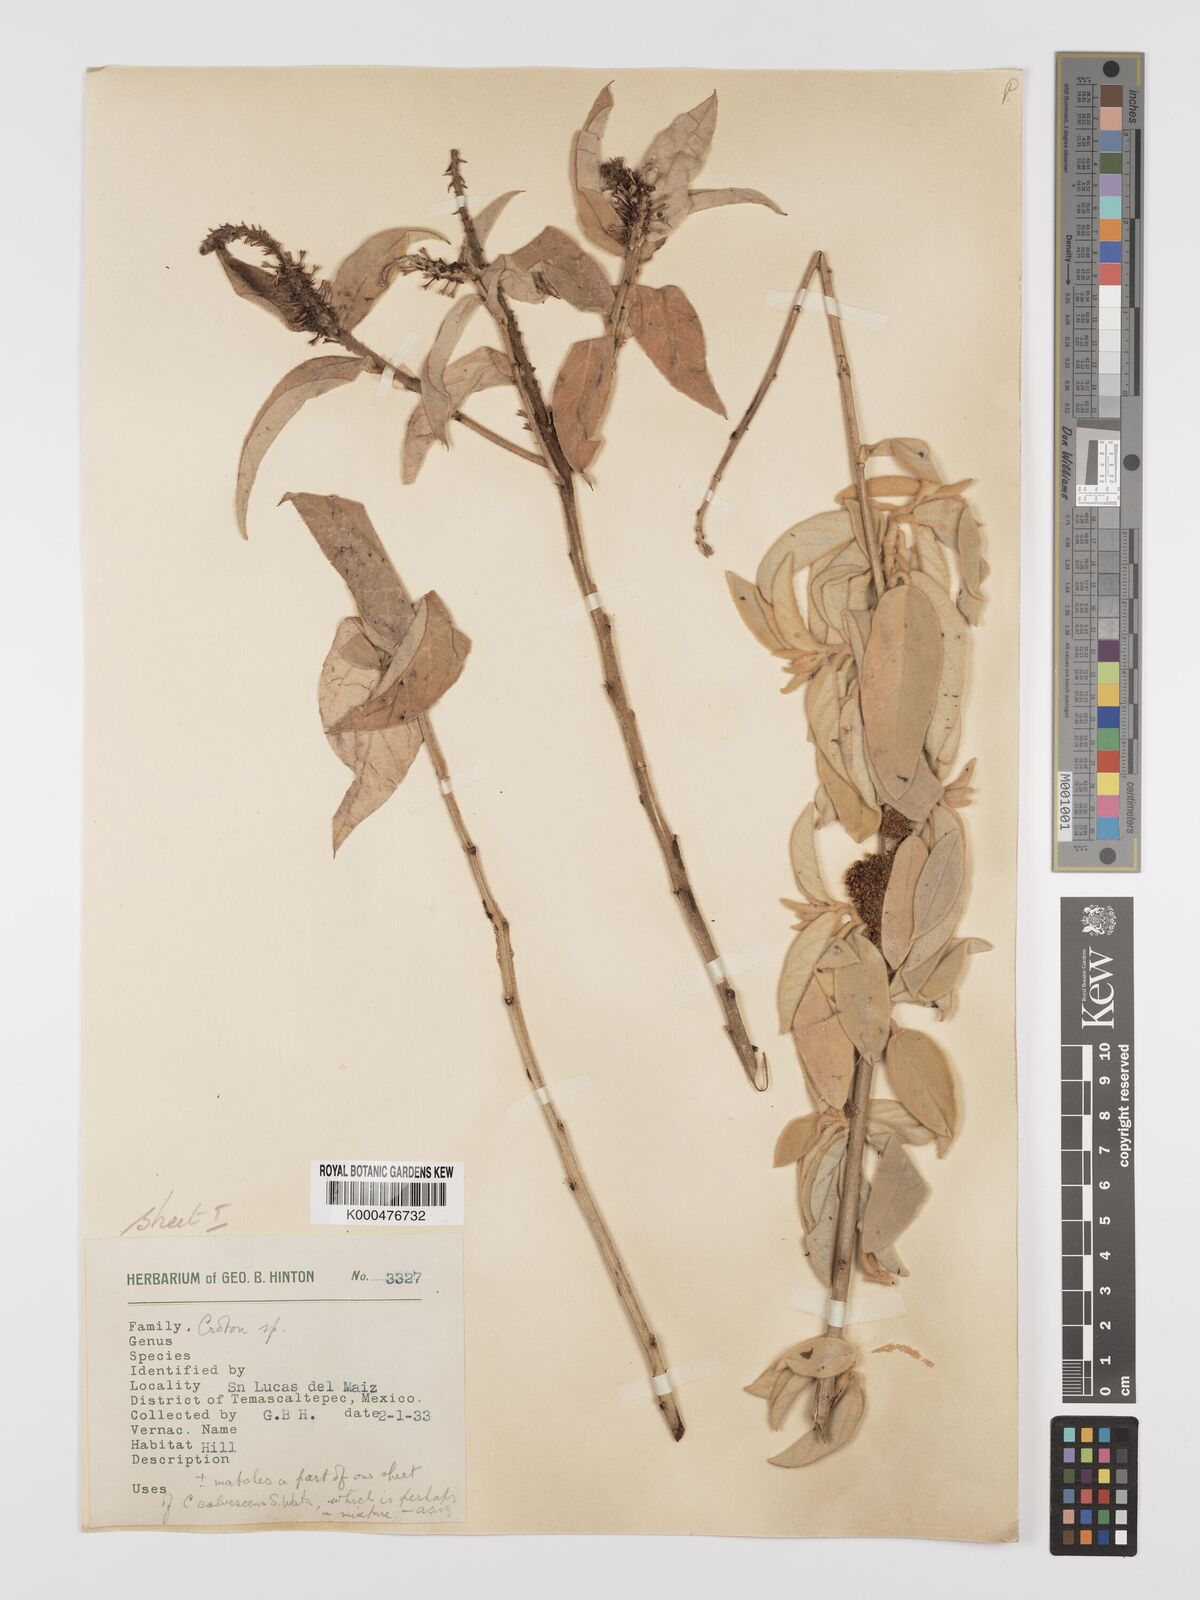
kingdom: Plantae
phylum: Tracheophyta
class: Magnoliopsida
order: Malpighiales
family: Euphorbiaceae
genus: Croton
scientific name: Croton
